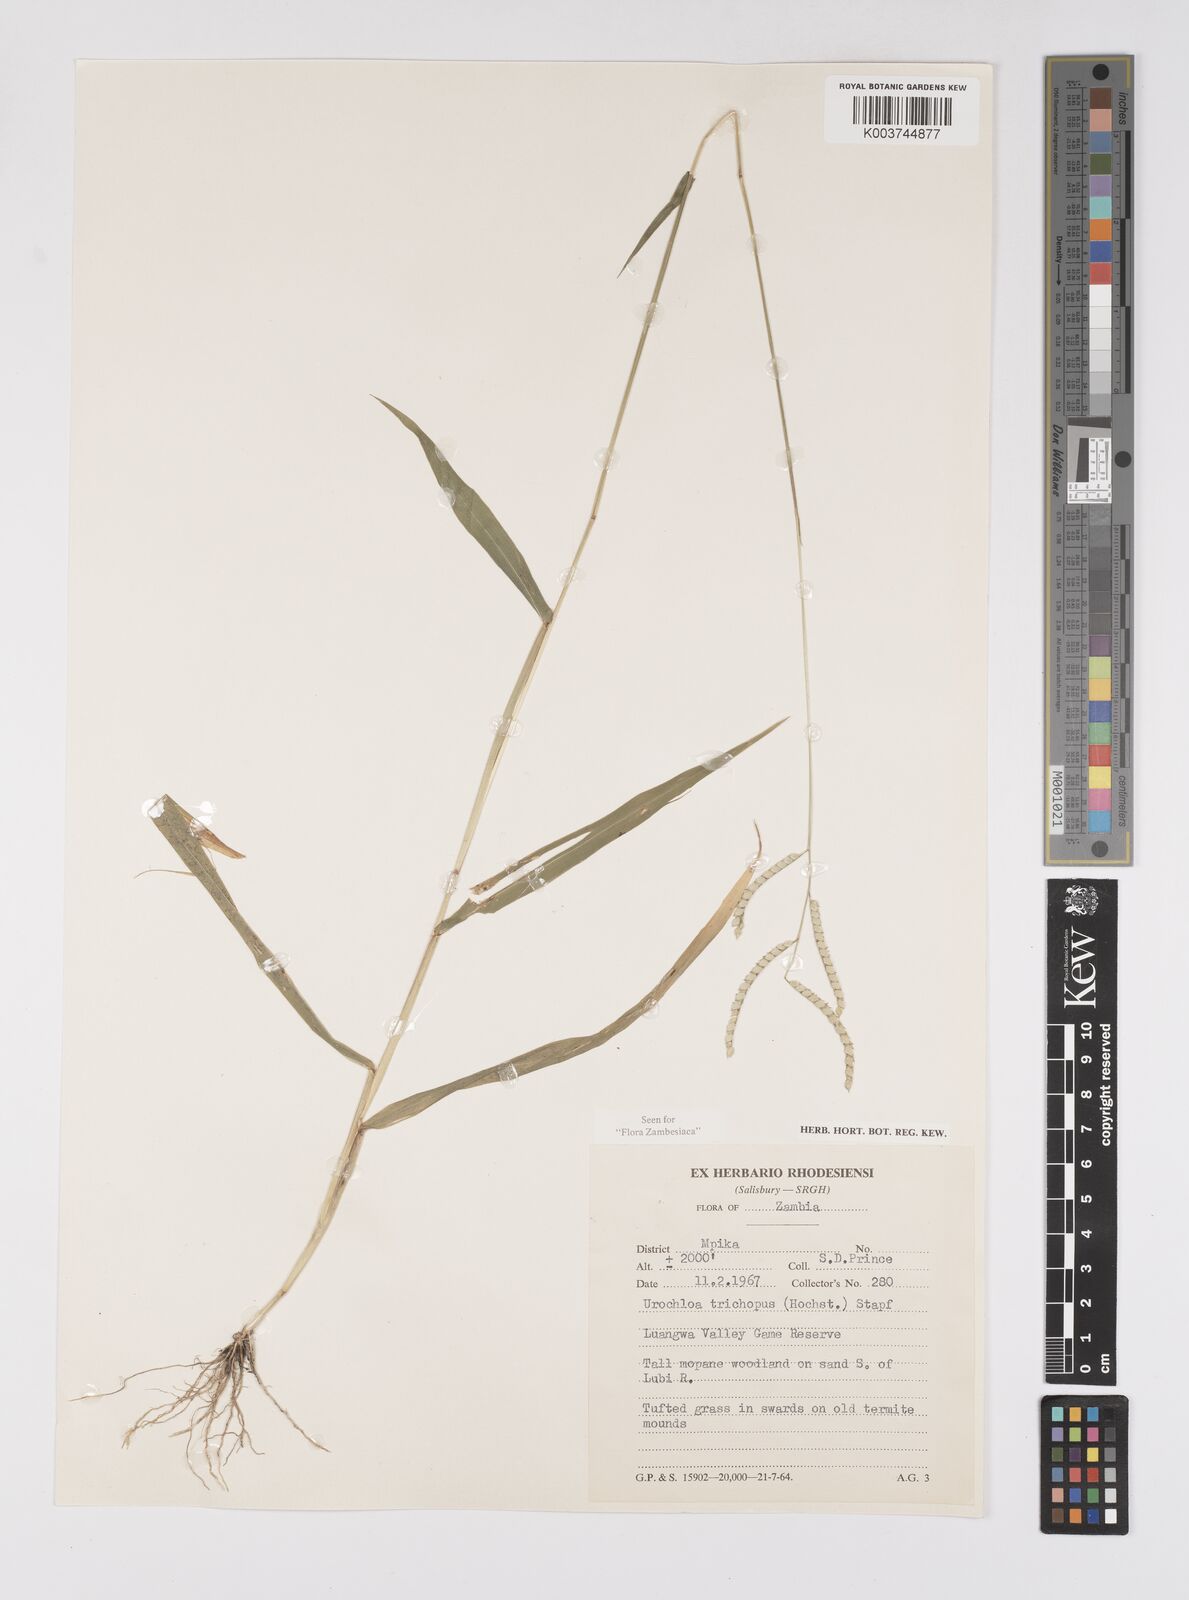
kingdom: Plantae
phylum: Tracheophyta
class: Liliopsida
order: Poales
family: Poaceae
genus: Urochloa
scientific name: Urochloa trichopus
